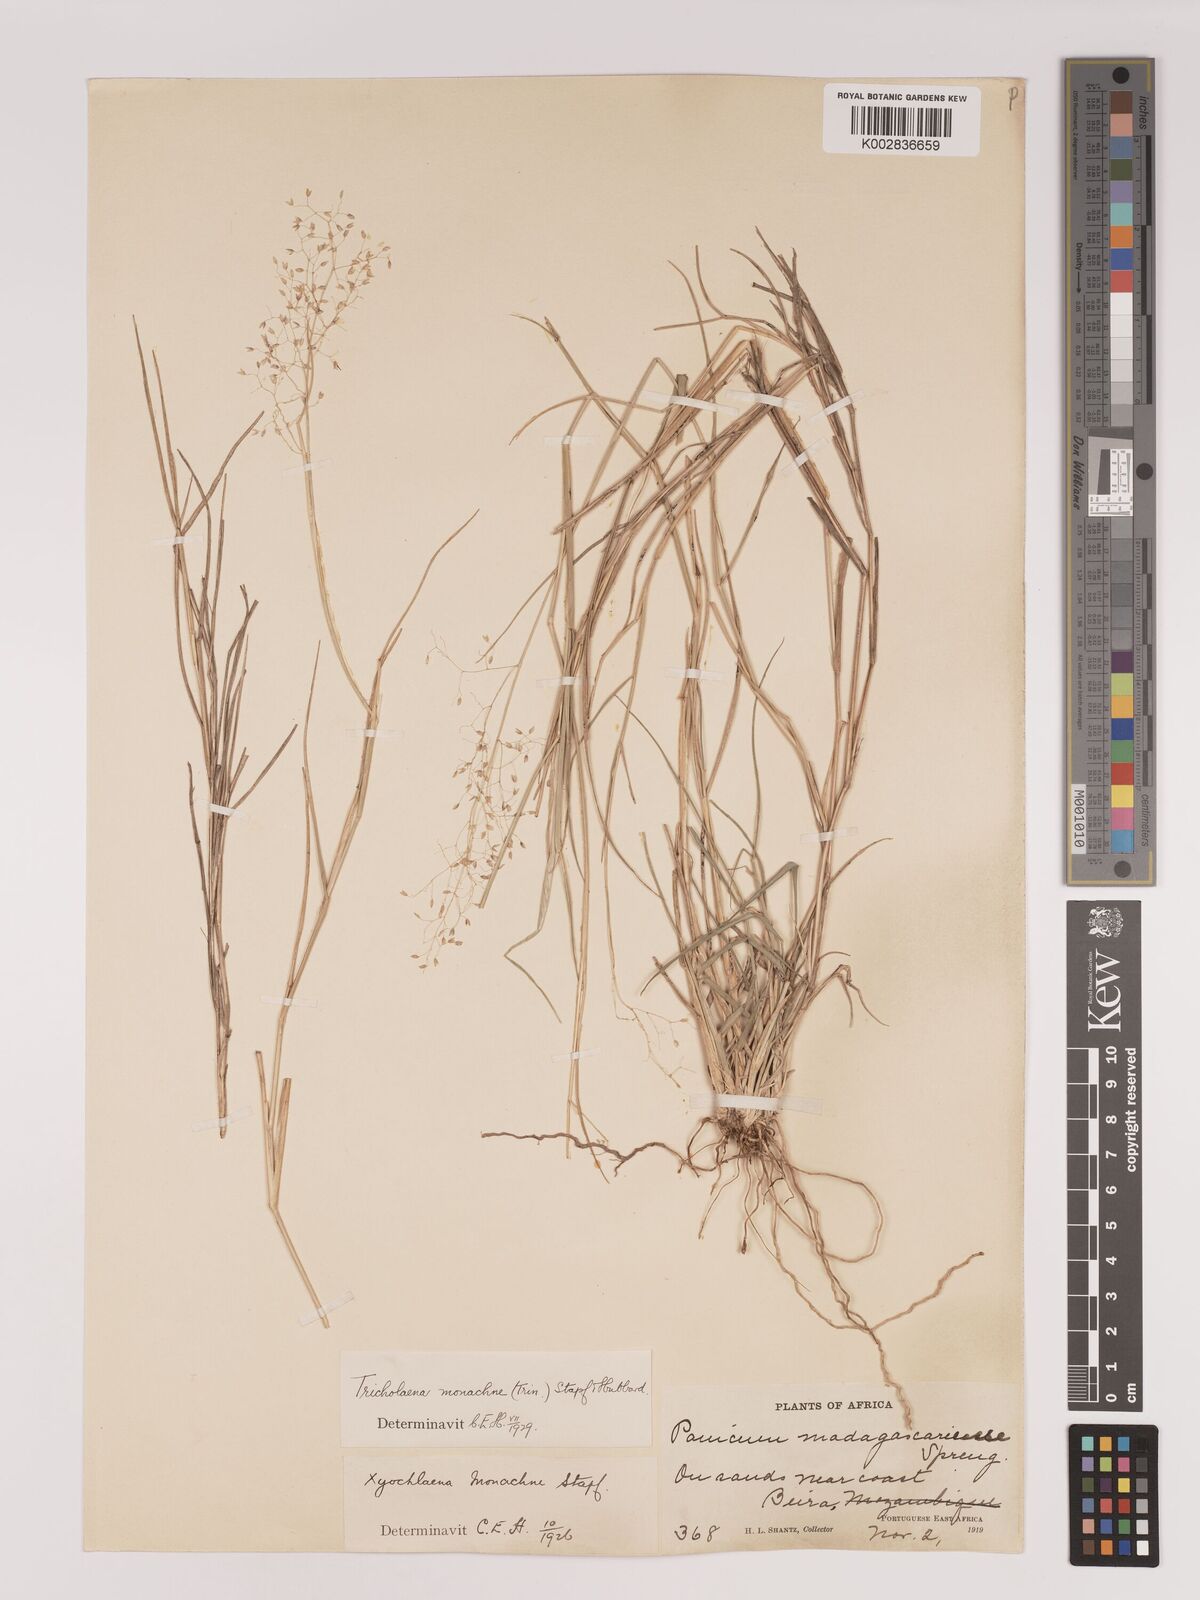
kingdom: Plantae
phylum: Tracheophyta
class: Liliopsida
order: Poales
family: Poaceae
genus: Tricholaena
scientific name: Tricholaena monachne
